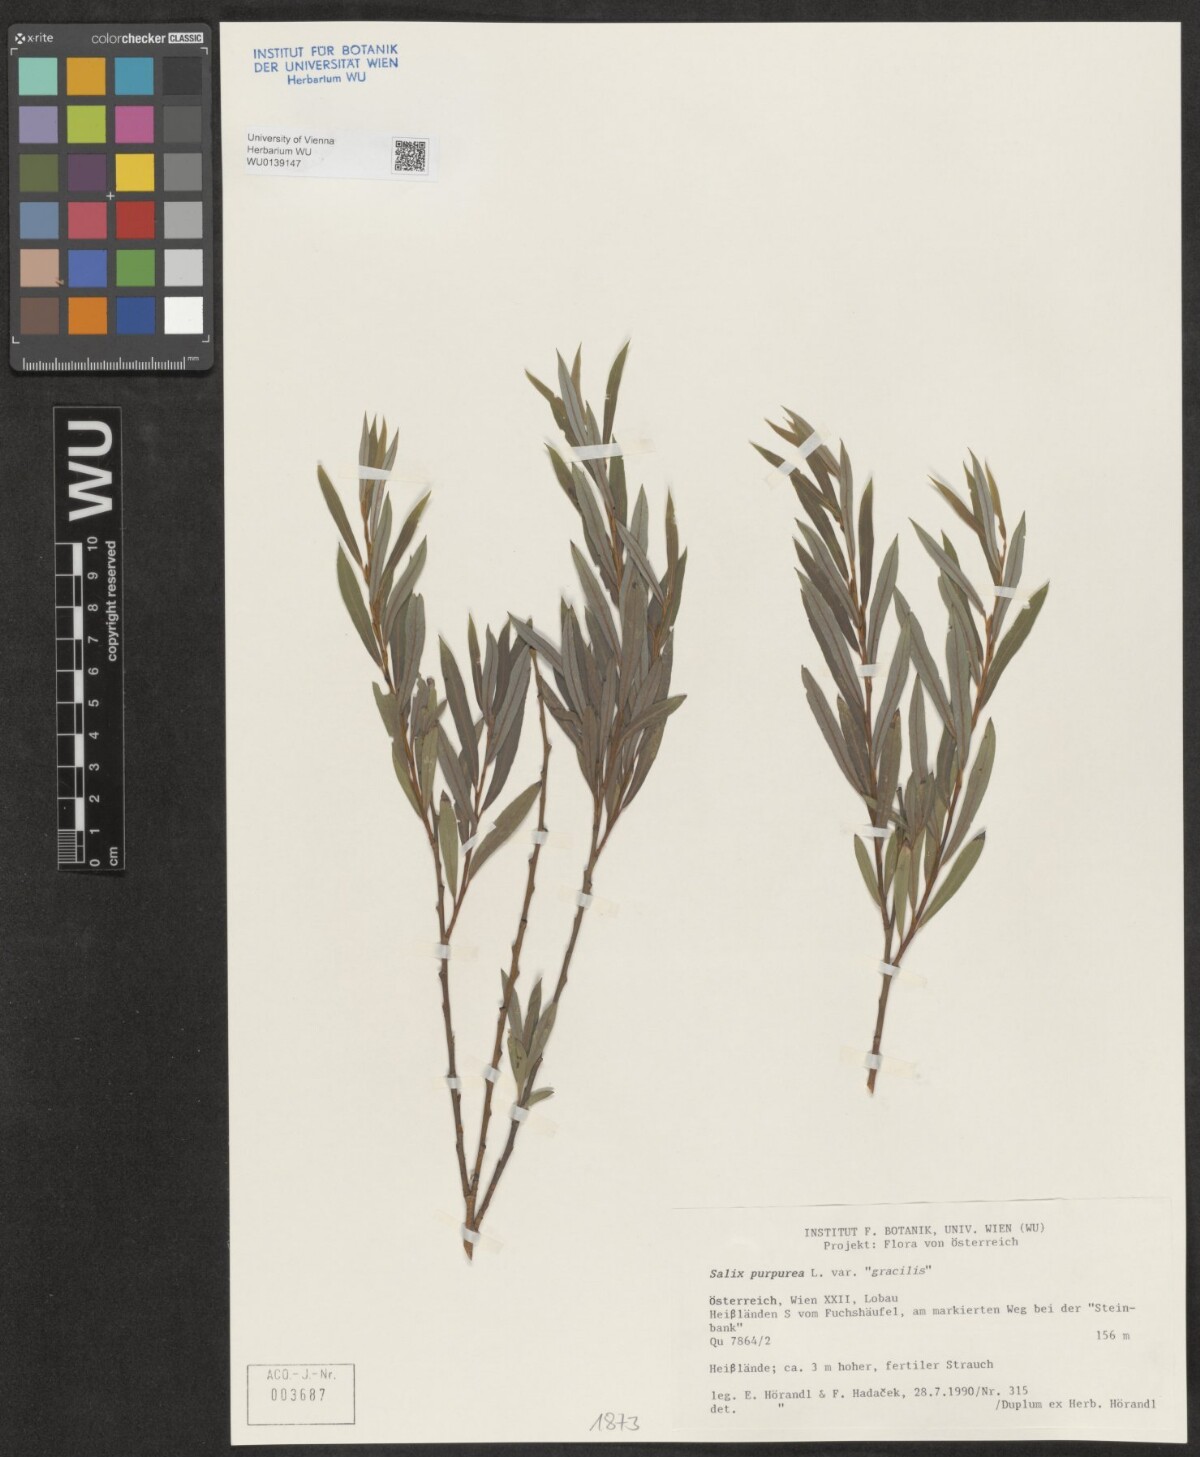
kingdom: Plantae
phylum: Tracheophyta
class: Magnoliopsida
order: Malpighiales
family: Salicaceae
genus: Salix
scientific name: Salix purpurea
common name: Purple willow
